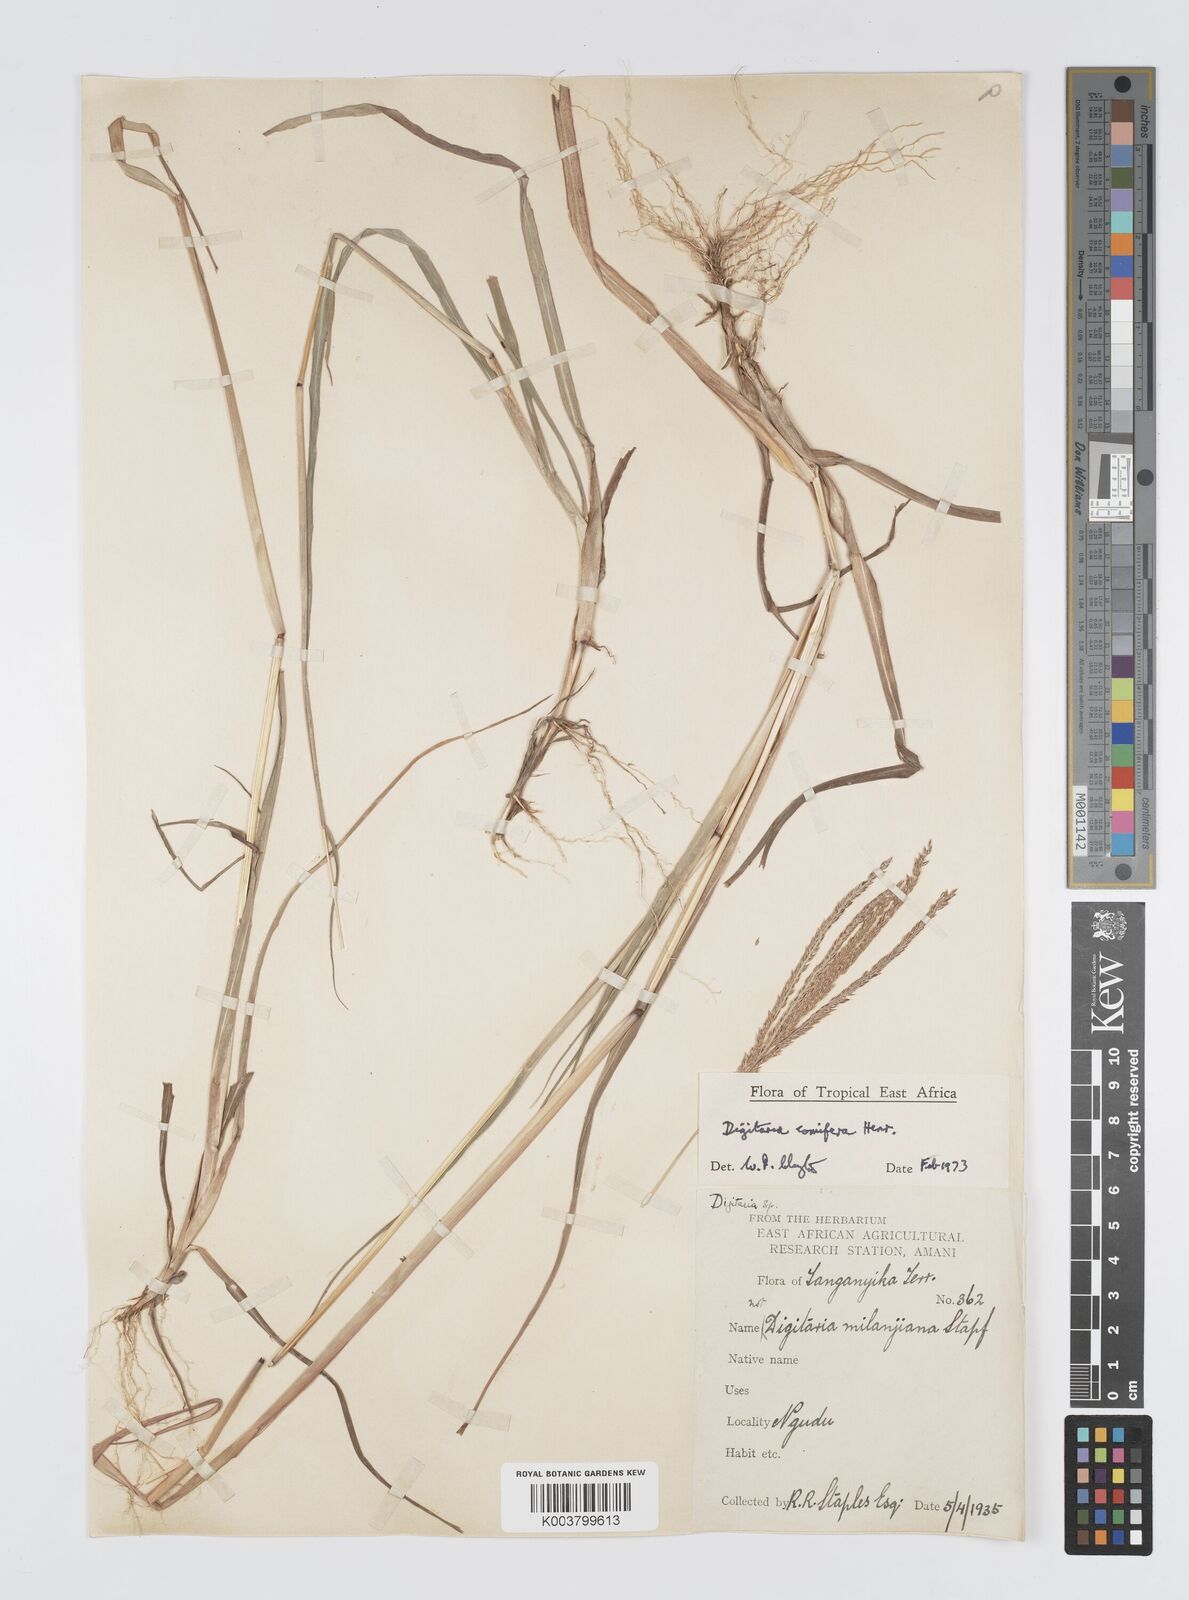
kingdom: Plantae
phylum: Tracheophyta
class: Liliopsida
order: Poales
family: Poaceae
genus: Digitaria
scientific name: Digitaria comifera
